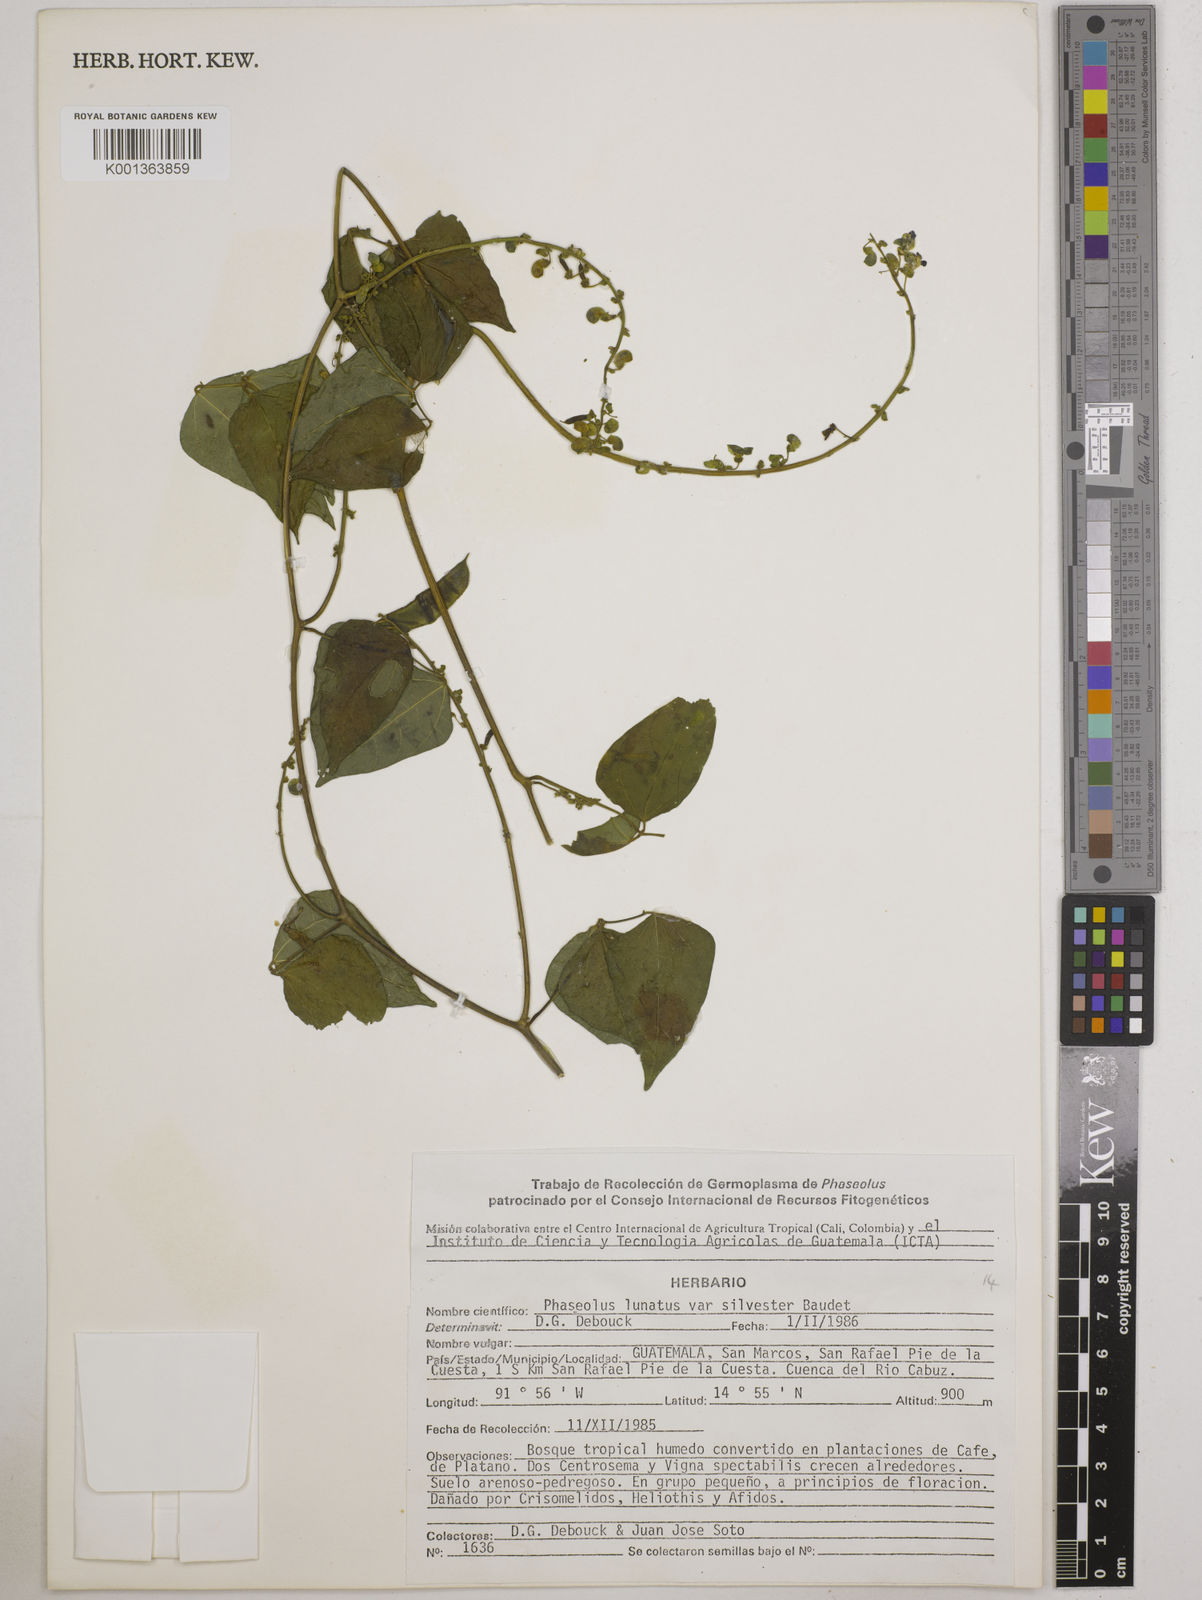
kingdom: Plantae
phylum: Tracheophyta
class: Magnoliopsida
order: Fabales
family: Fabaceae
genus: Phaseolus
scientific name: Phaseolus lunatus
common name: Sieva bean
